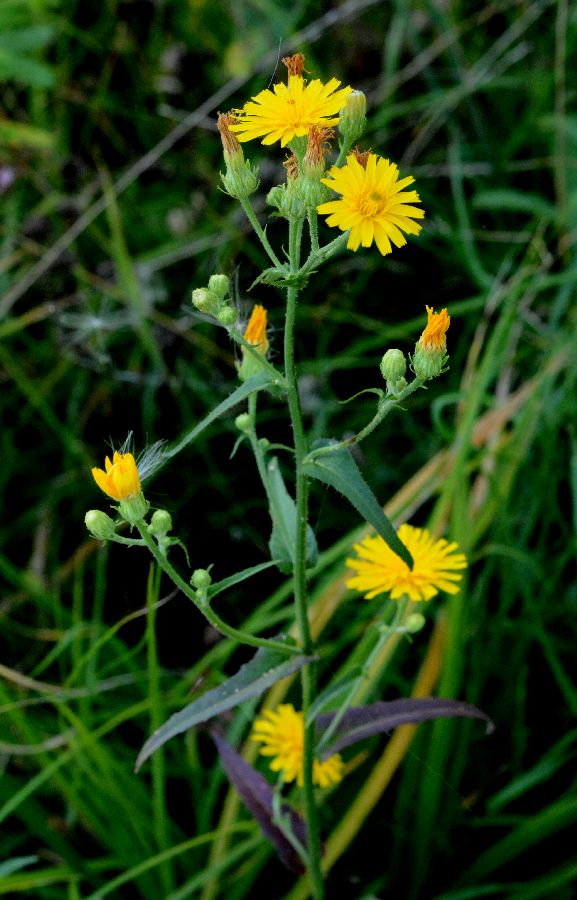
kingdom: Plantae
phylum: Tracheophyta
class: Magnoliopsida
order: Asterales
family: Asteraceae
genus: Picris
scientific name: Picris hieracioides
